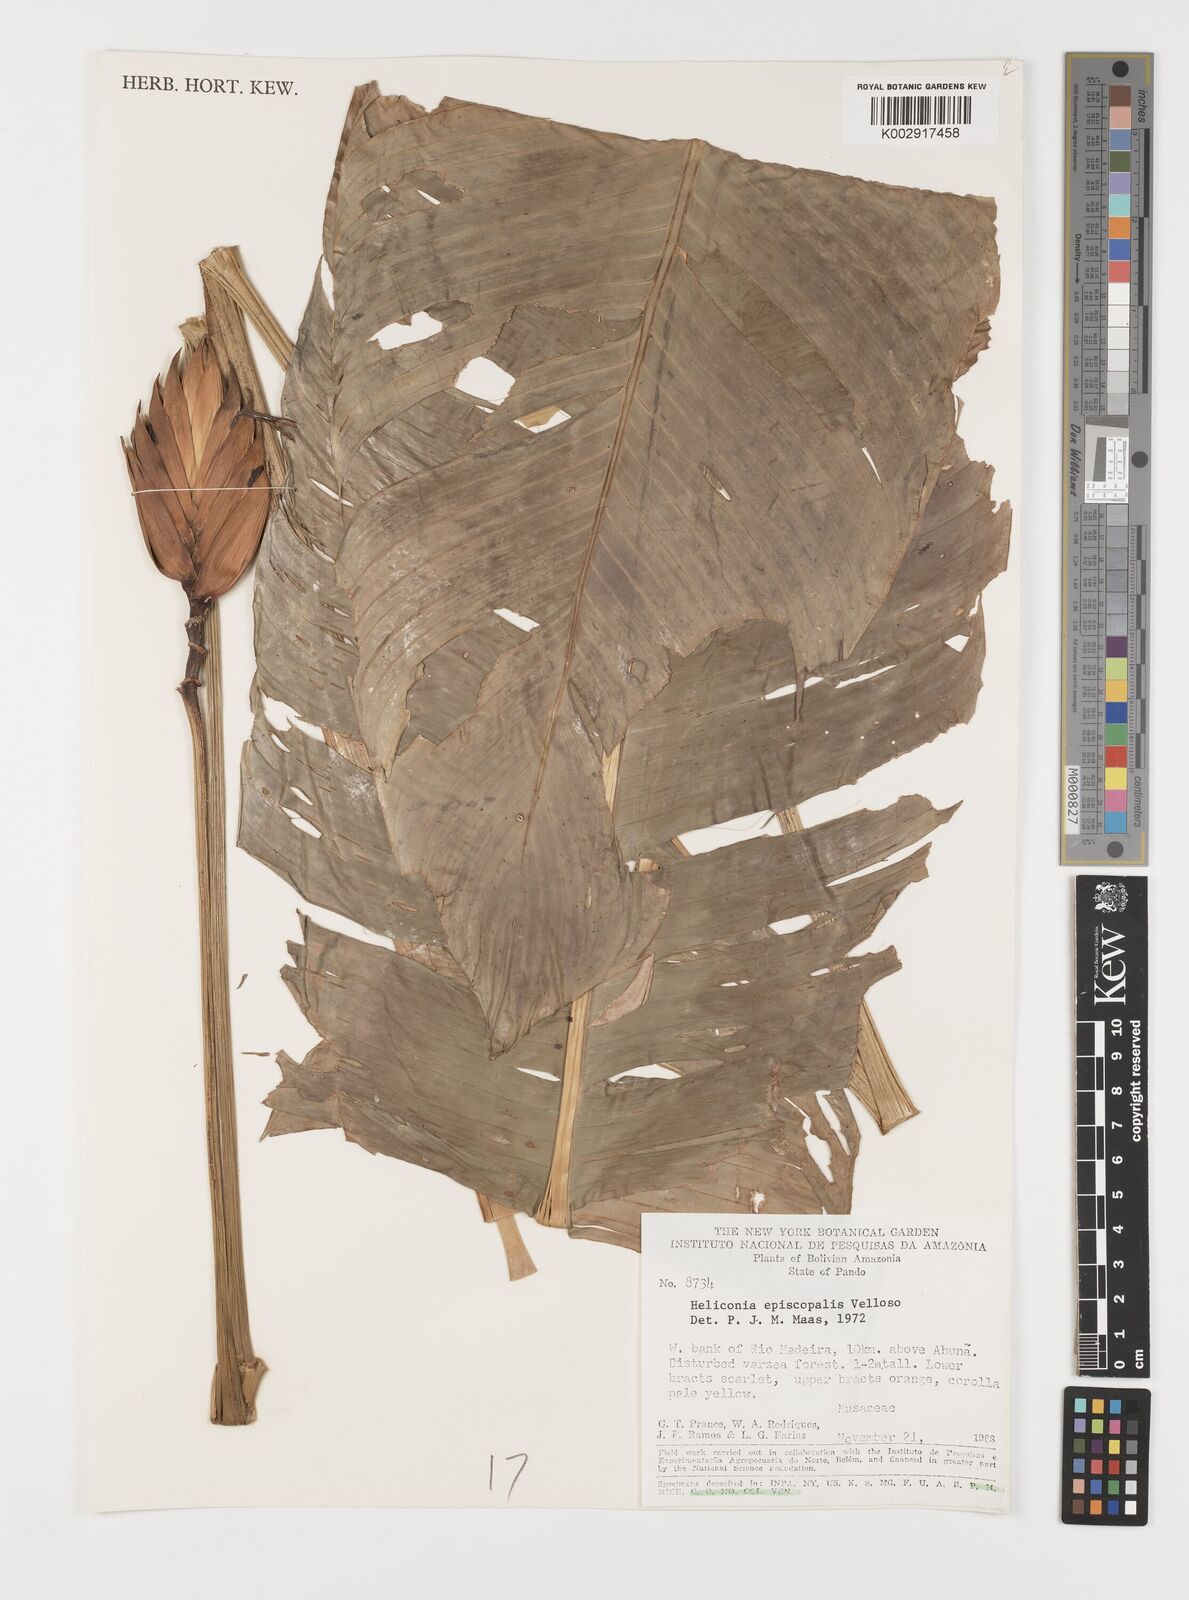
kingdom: Plantae
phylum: Tracheophyta
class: Liliopsida
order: Zingiberales
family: Heliconiaceae
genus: Heliconia
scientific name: Heliconia episcopalis
